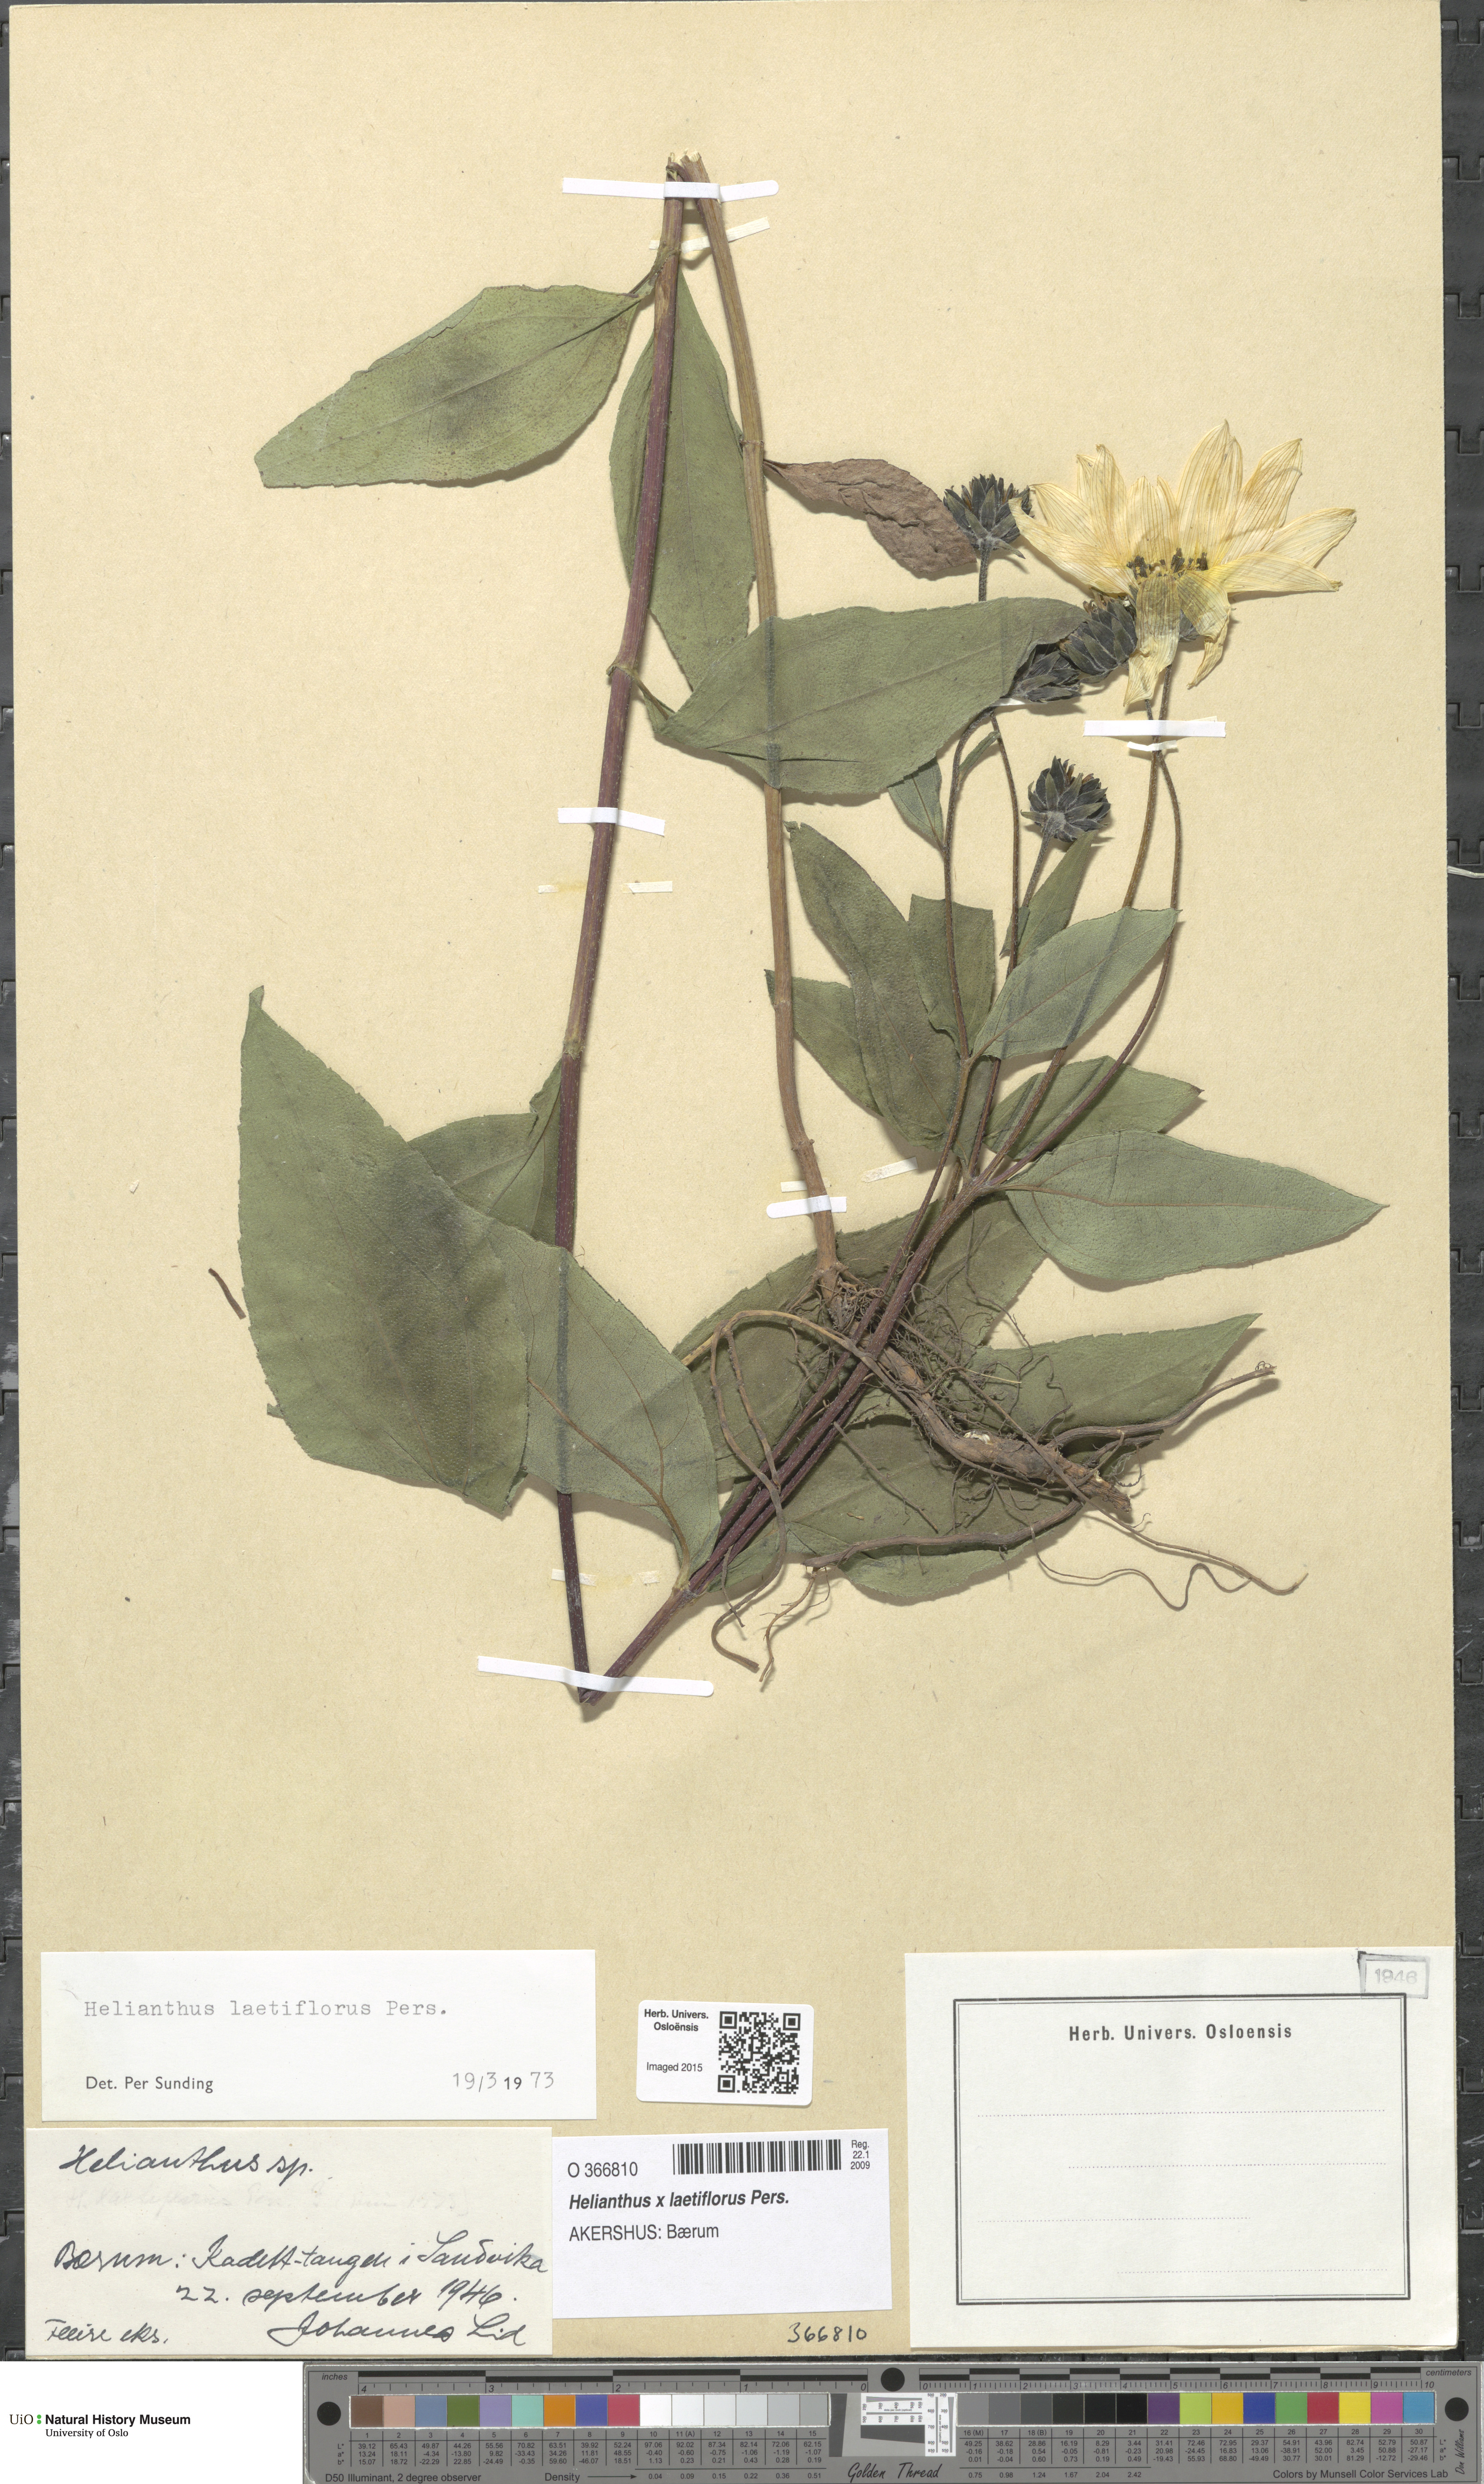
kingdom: Plantae
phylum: Tracheophyta
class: Magnoliopsida
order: Asterales
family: Asteraceae
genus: Helianthus
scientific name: Helianthus laetiflorus
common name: Perennial sunflower
